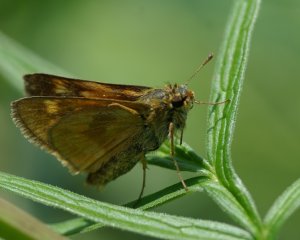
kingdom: Animalia
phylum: Arthropoda
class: Insecta
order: Lepidoptera
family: Hesperiidae
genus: Polites
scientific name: Polites
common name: Long Dash Skipper
